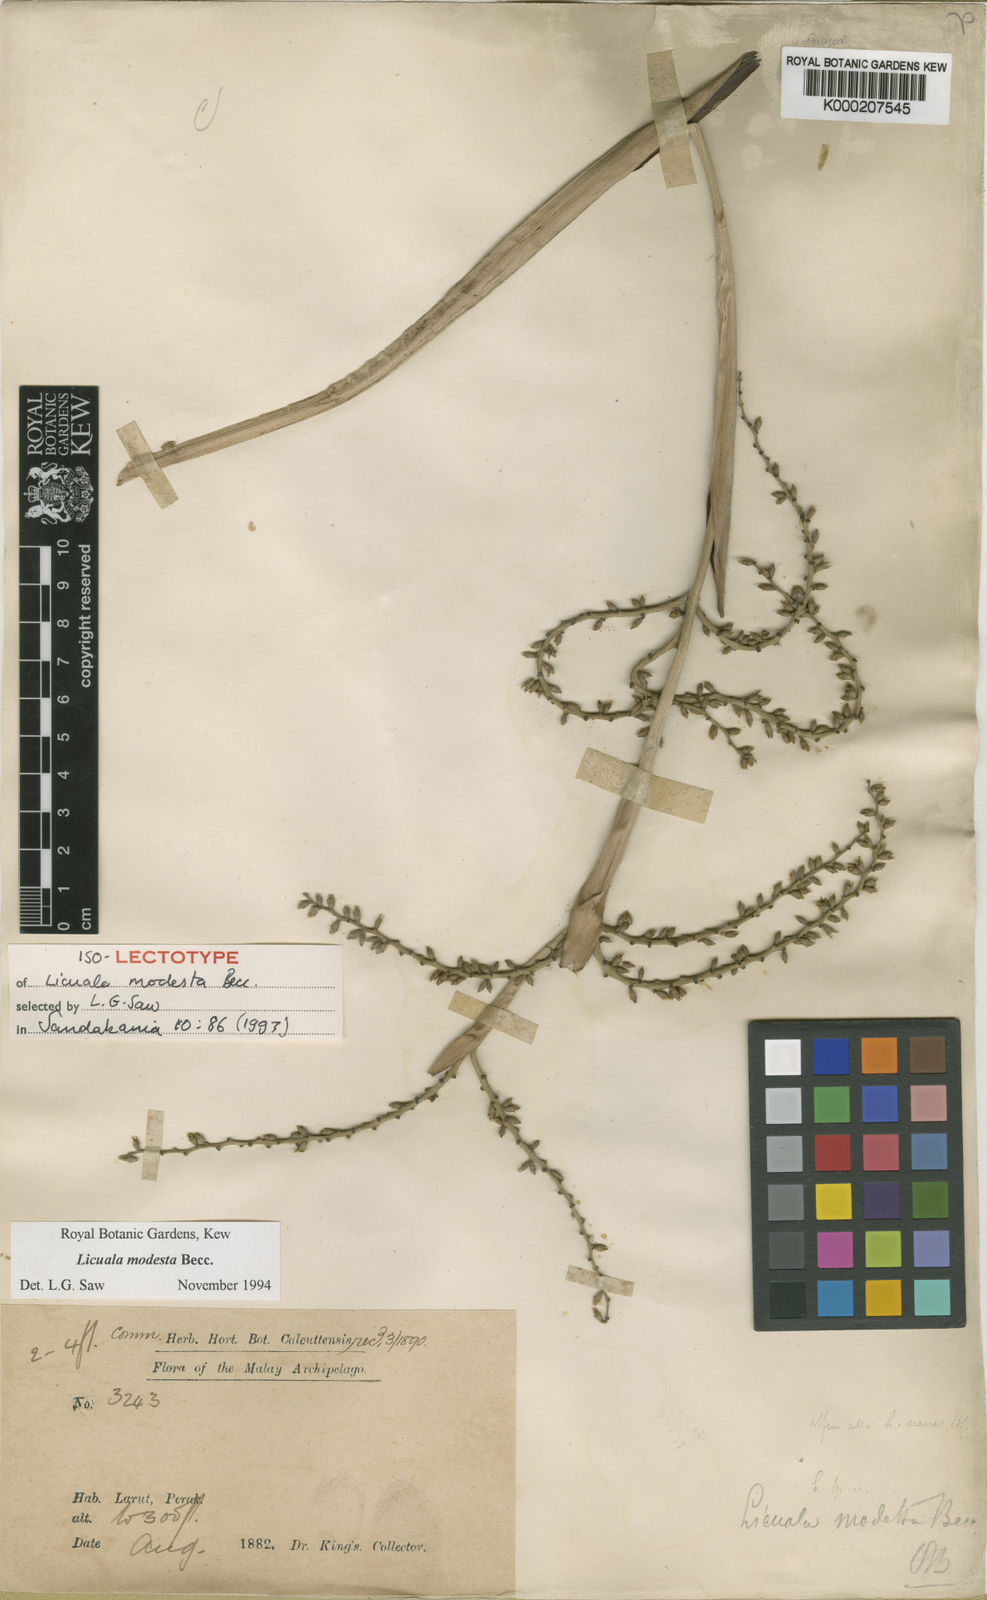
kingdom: Plantae
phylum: Tracheophyta
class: Liliopsida
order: Arecales
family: Arecaceae
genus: Licuala
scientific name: Licuala modesta
